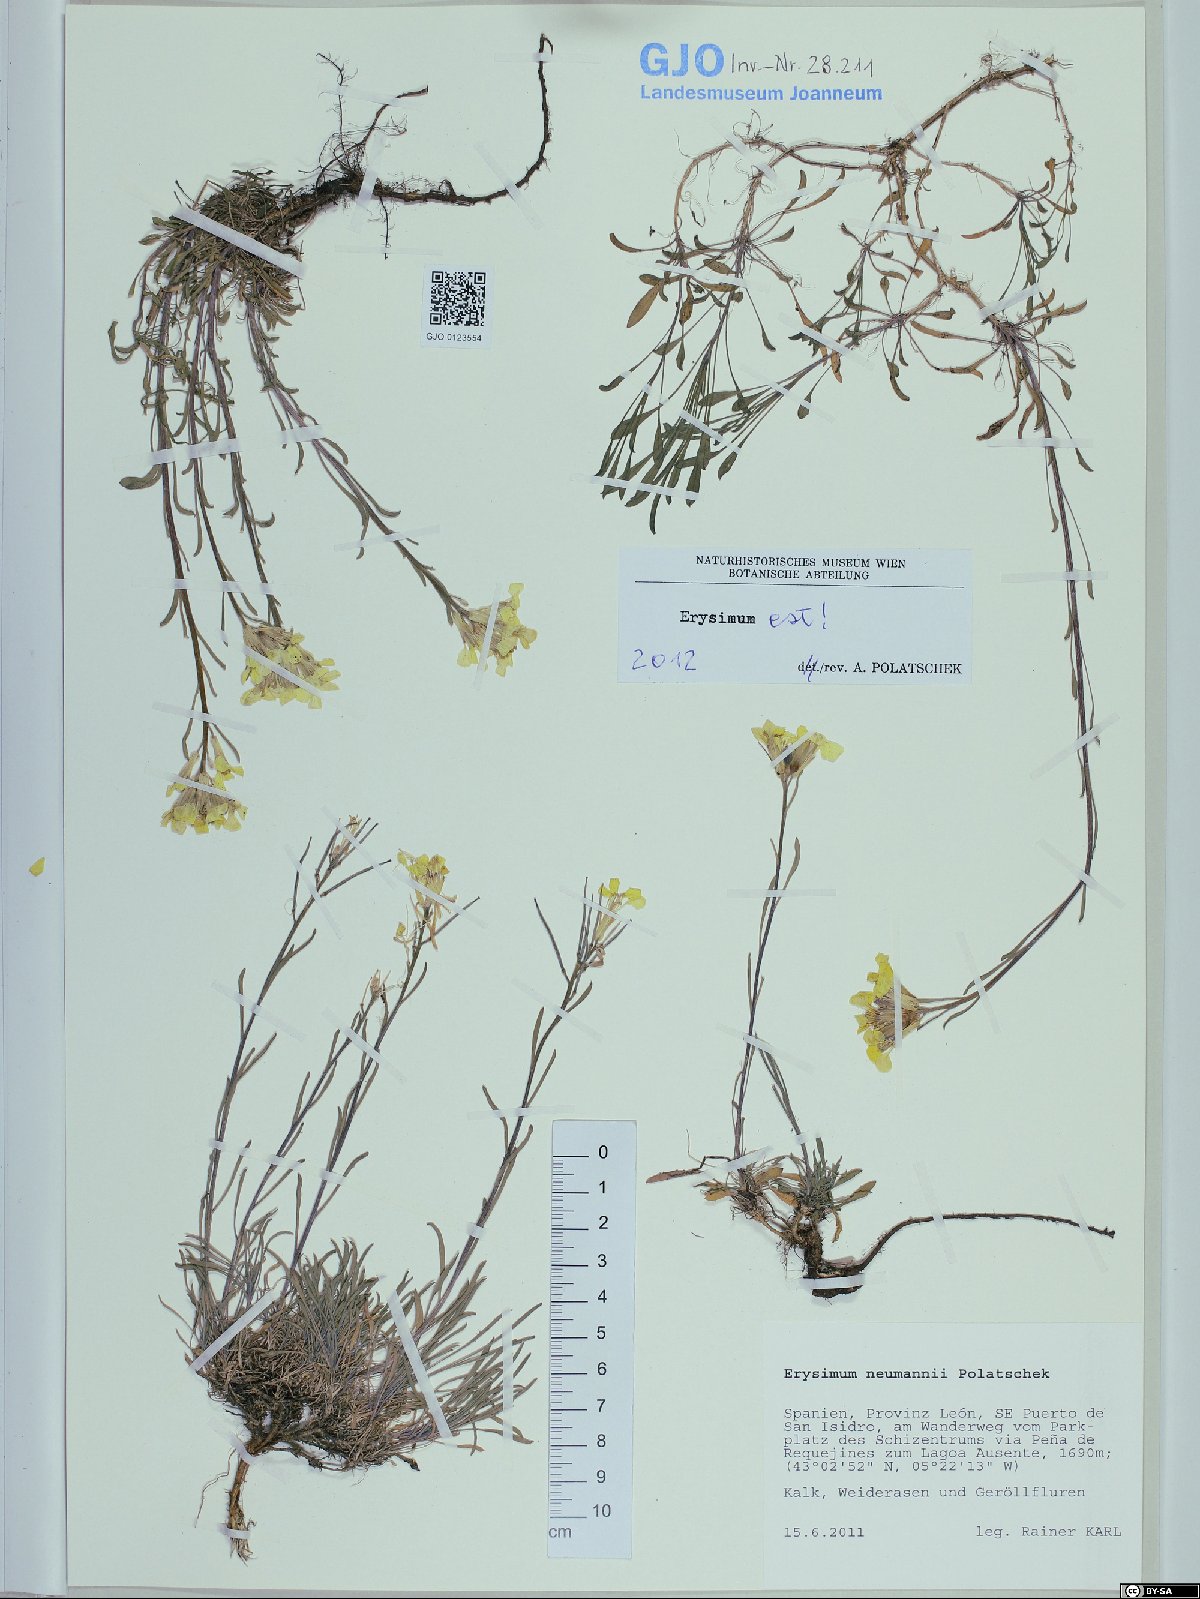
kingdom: Plantae
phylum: Tracheophyta
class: Magnoliopsida
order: Brassicales
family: Brassicaceae
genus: Erysimum
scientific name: Erysimum duriaei
